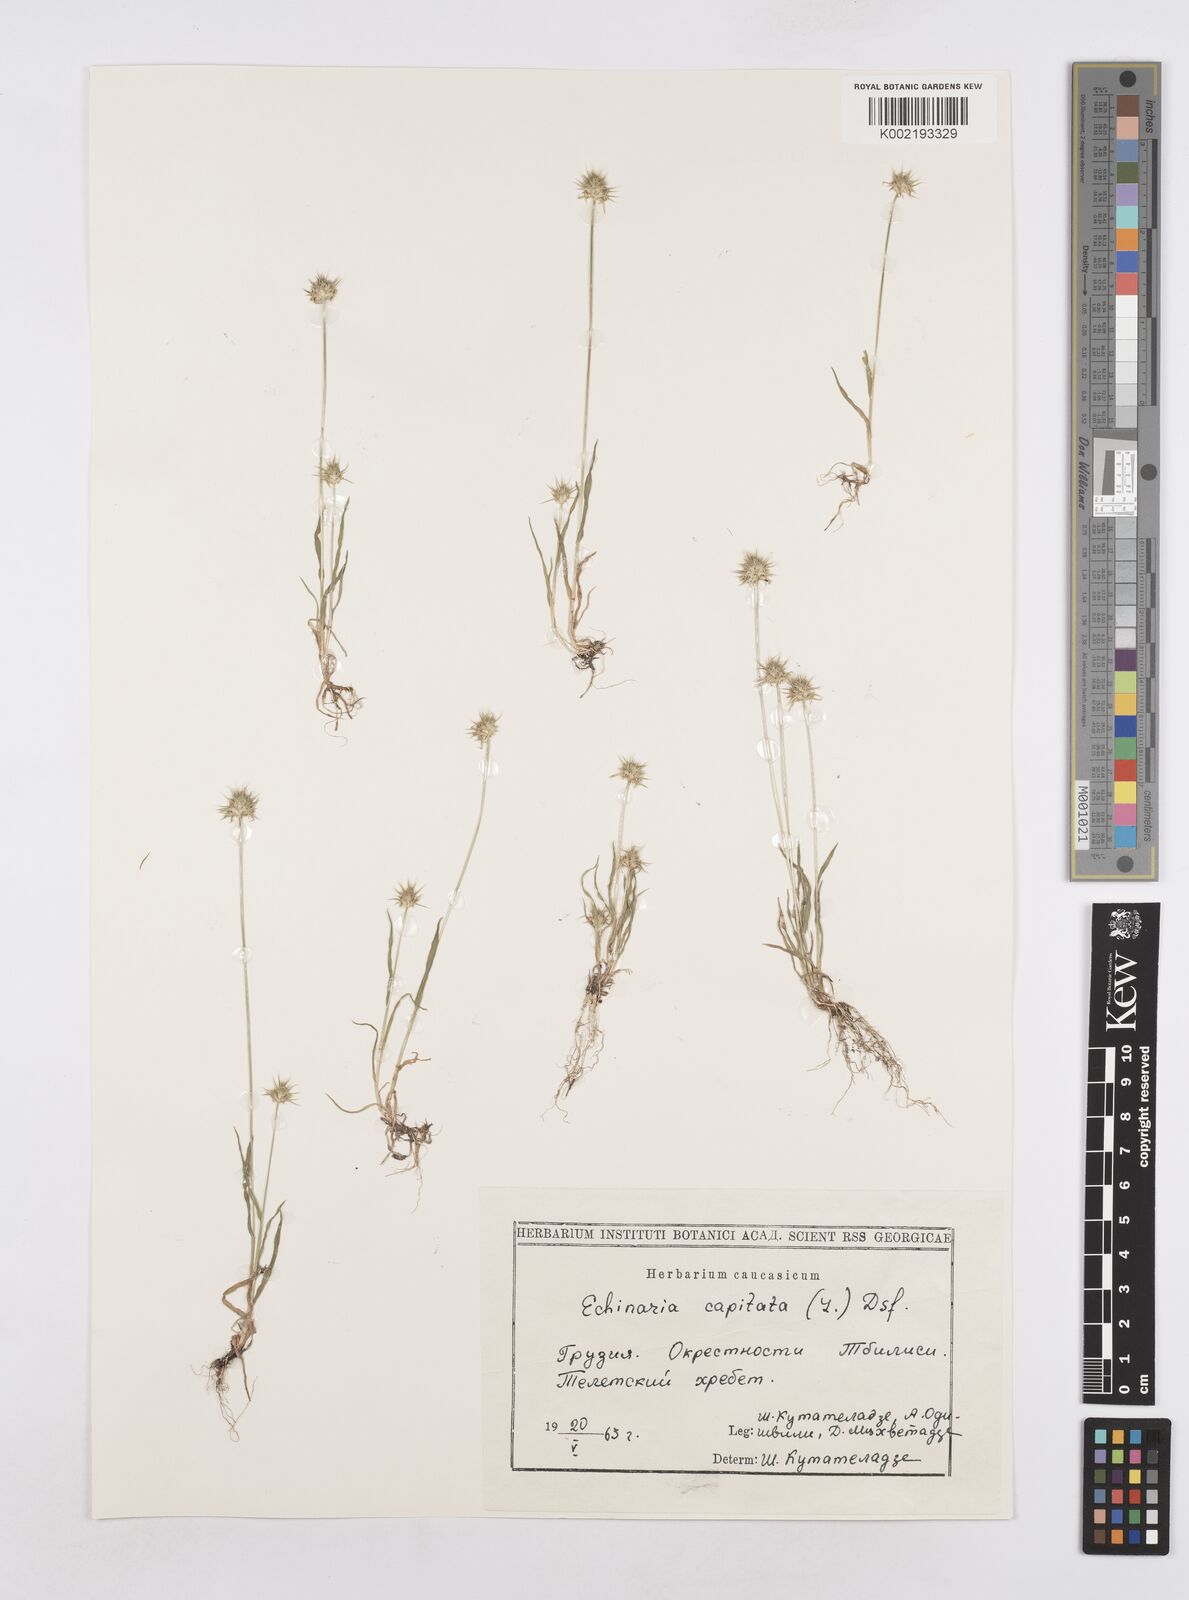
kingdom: Plantae
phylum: Tracheophyta
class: Liliopsida
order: Poales
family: Poaceae
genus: Echinaria
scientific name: Echinaria capitata
